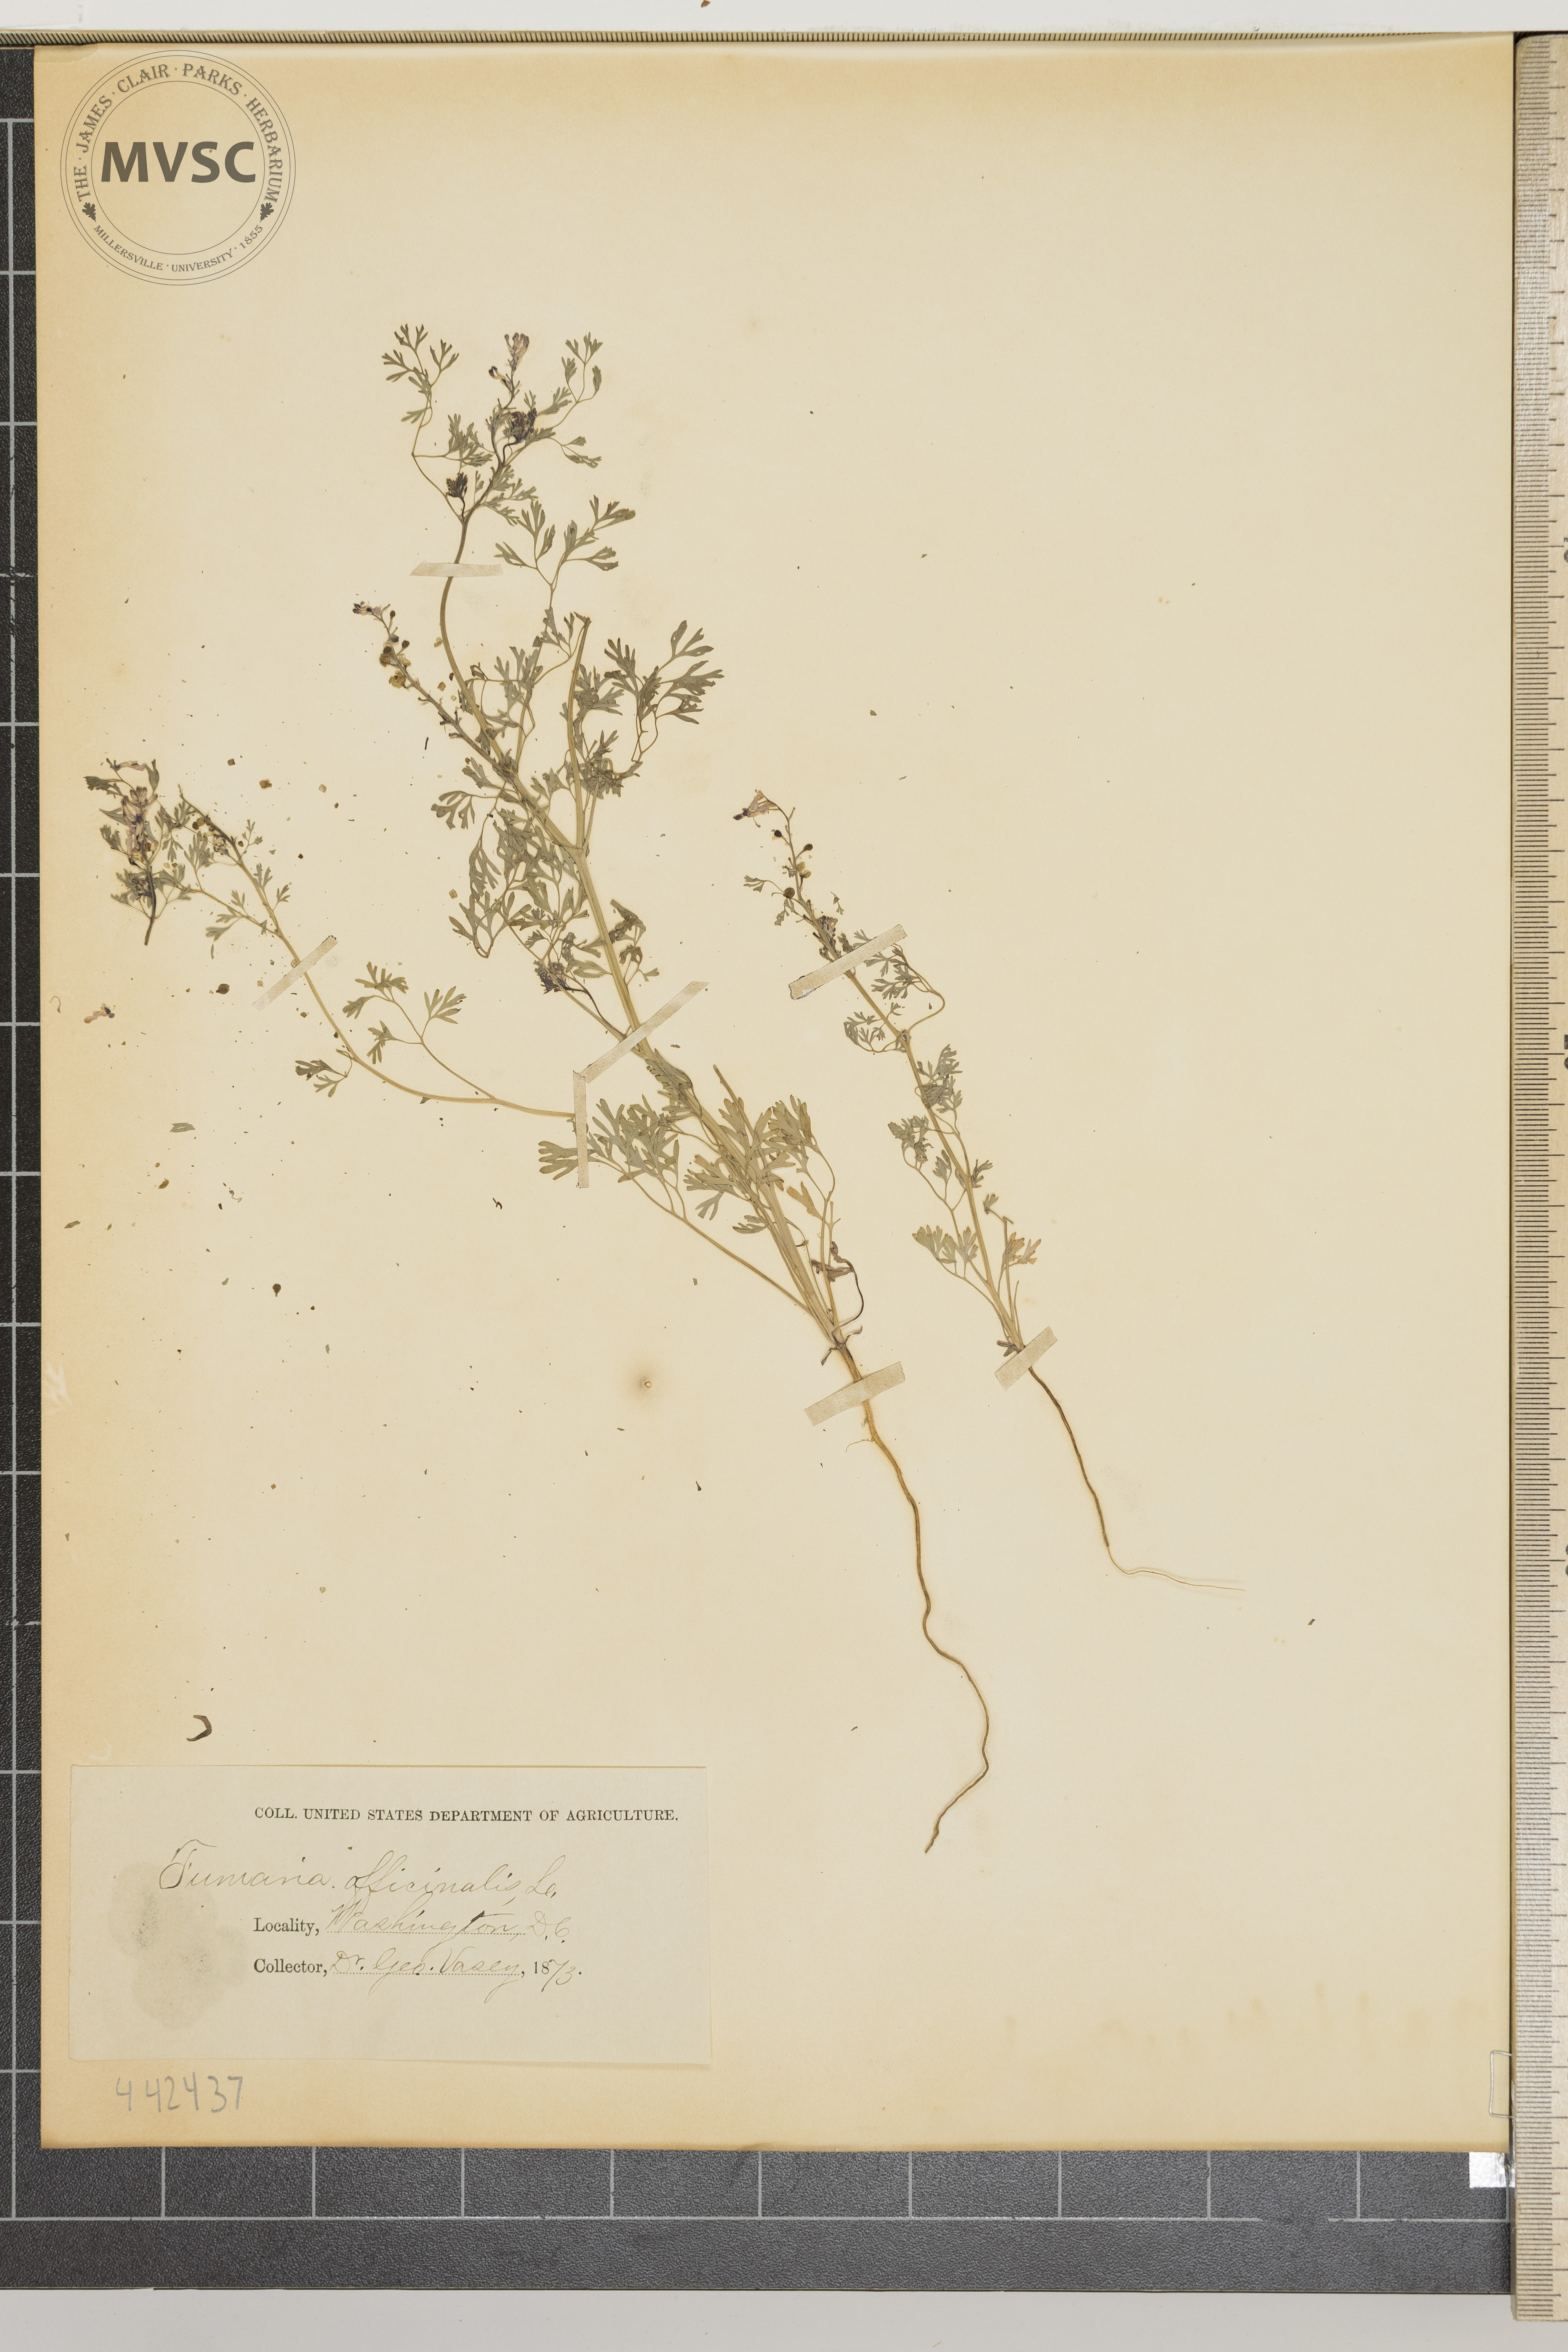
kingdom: Plantae
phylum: Tracheophyta
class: Magnoliopsida
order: Ranunculales
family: Papaveraceae
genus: Fumaria
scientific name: Fumaria officinalis
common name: Common fumitory
